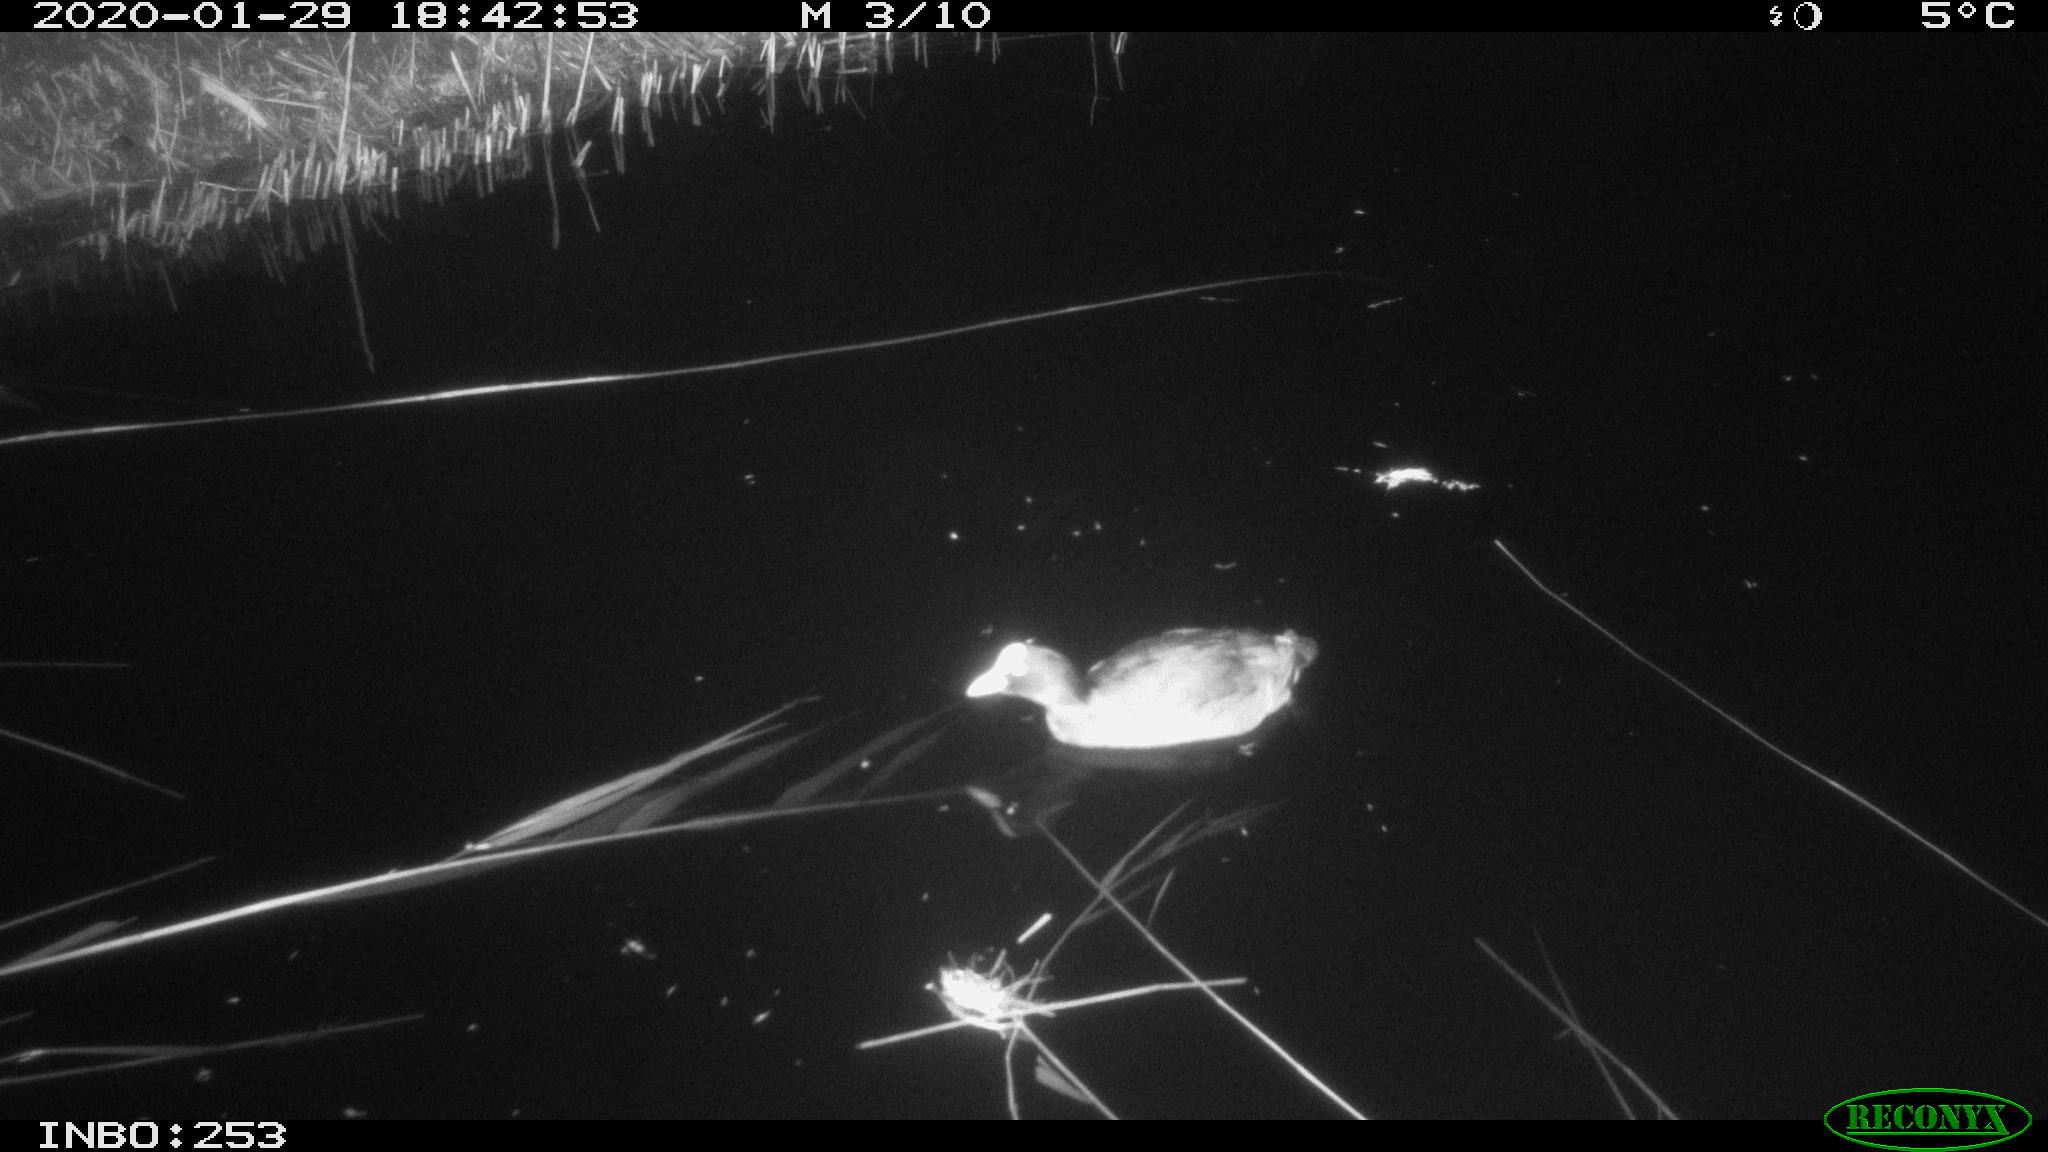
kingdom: Animalia
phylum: Chordata
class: Aves
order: Gruiformes
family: Rallidae
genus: Fulica
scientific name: Fulica atra
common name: Eurasian coot
